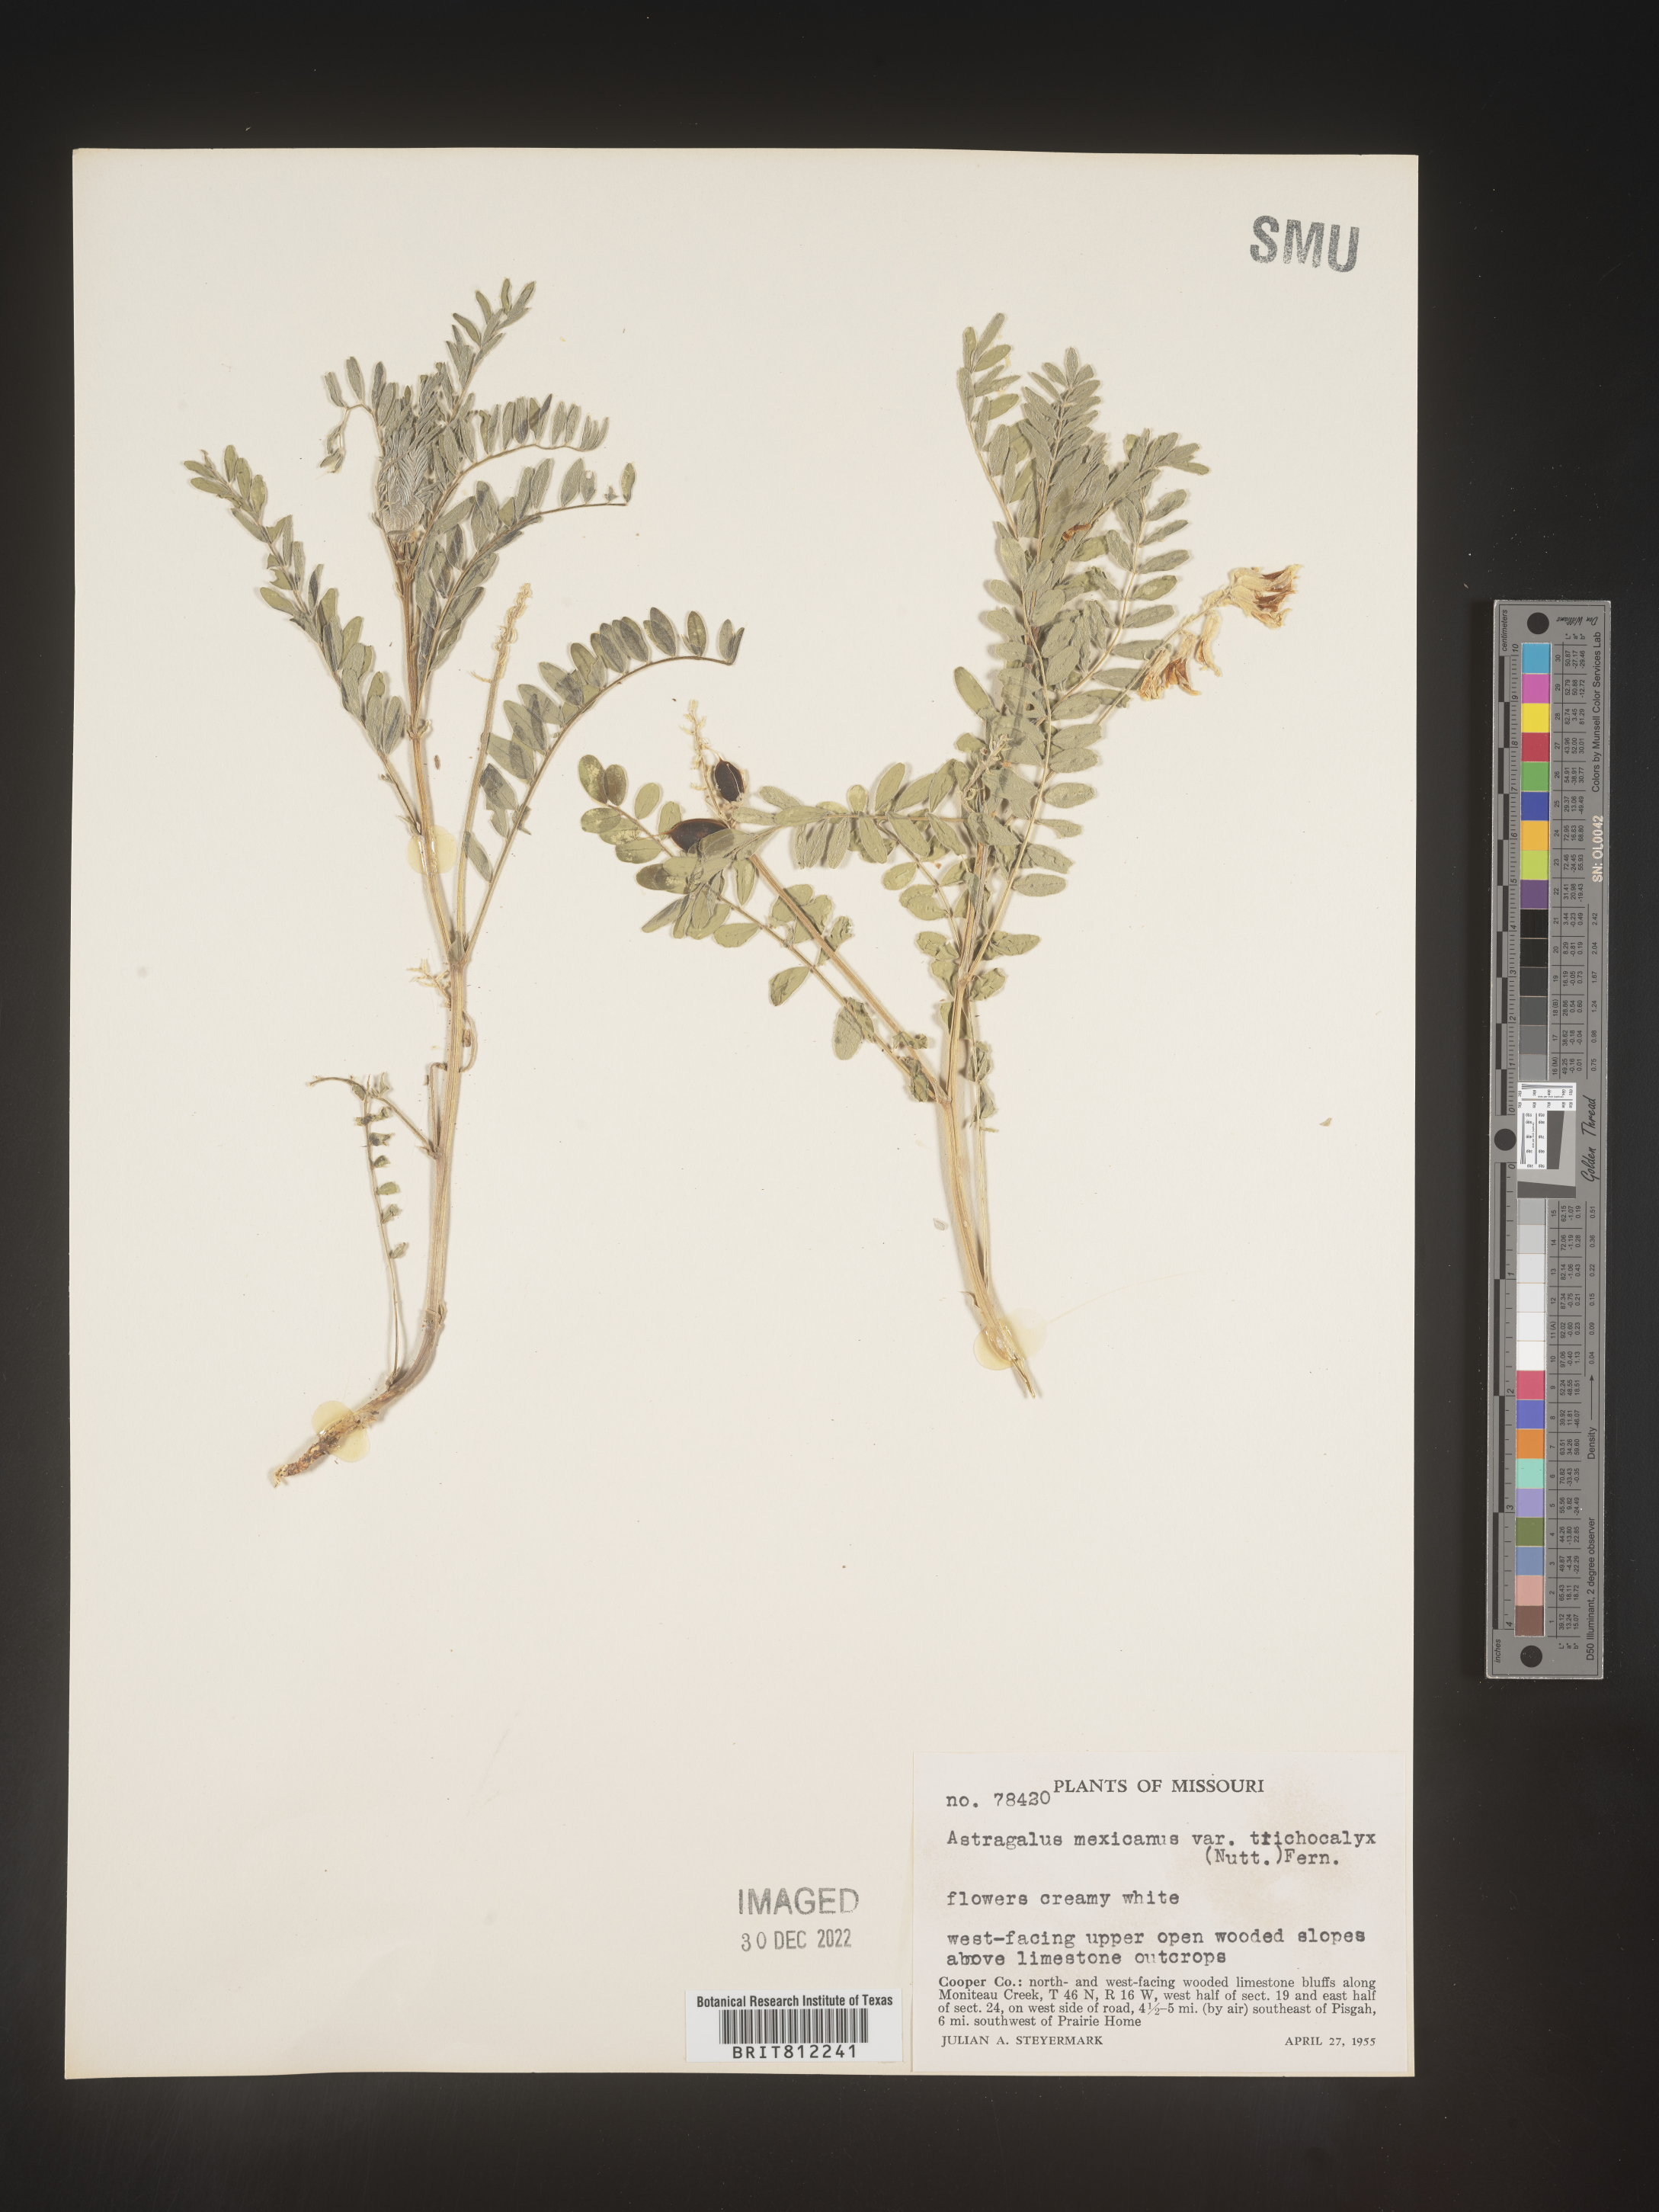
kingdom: Plantae
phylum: Tracheophyta
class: Magnoliopsida
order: Fabales
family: Fabaceae
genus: Astragalus
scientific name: Astragalus
